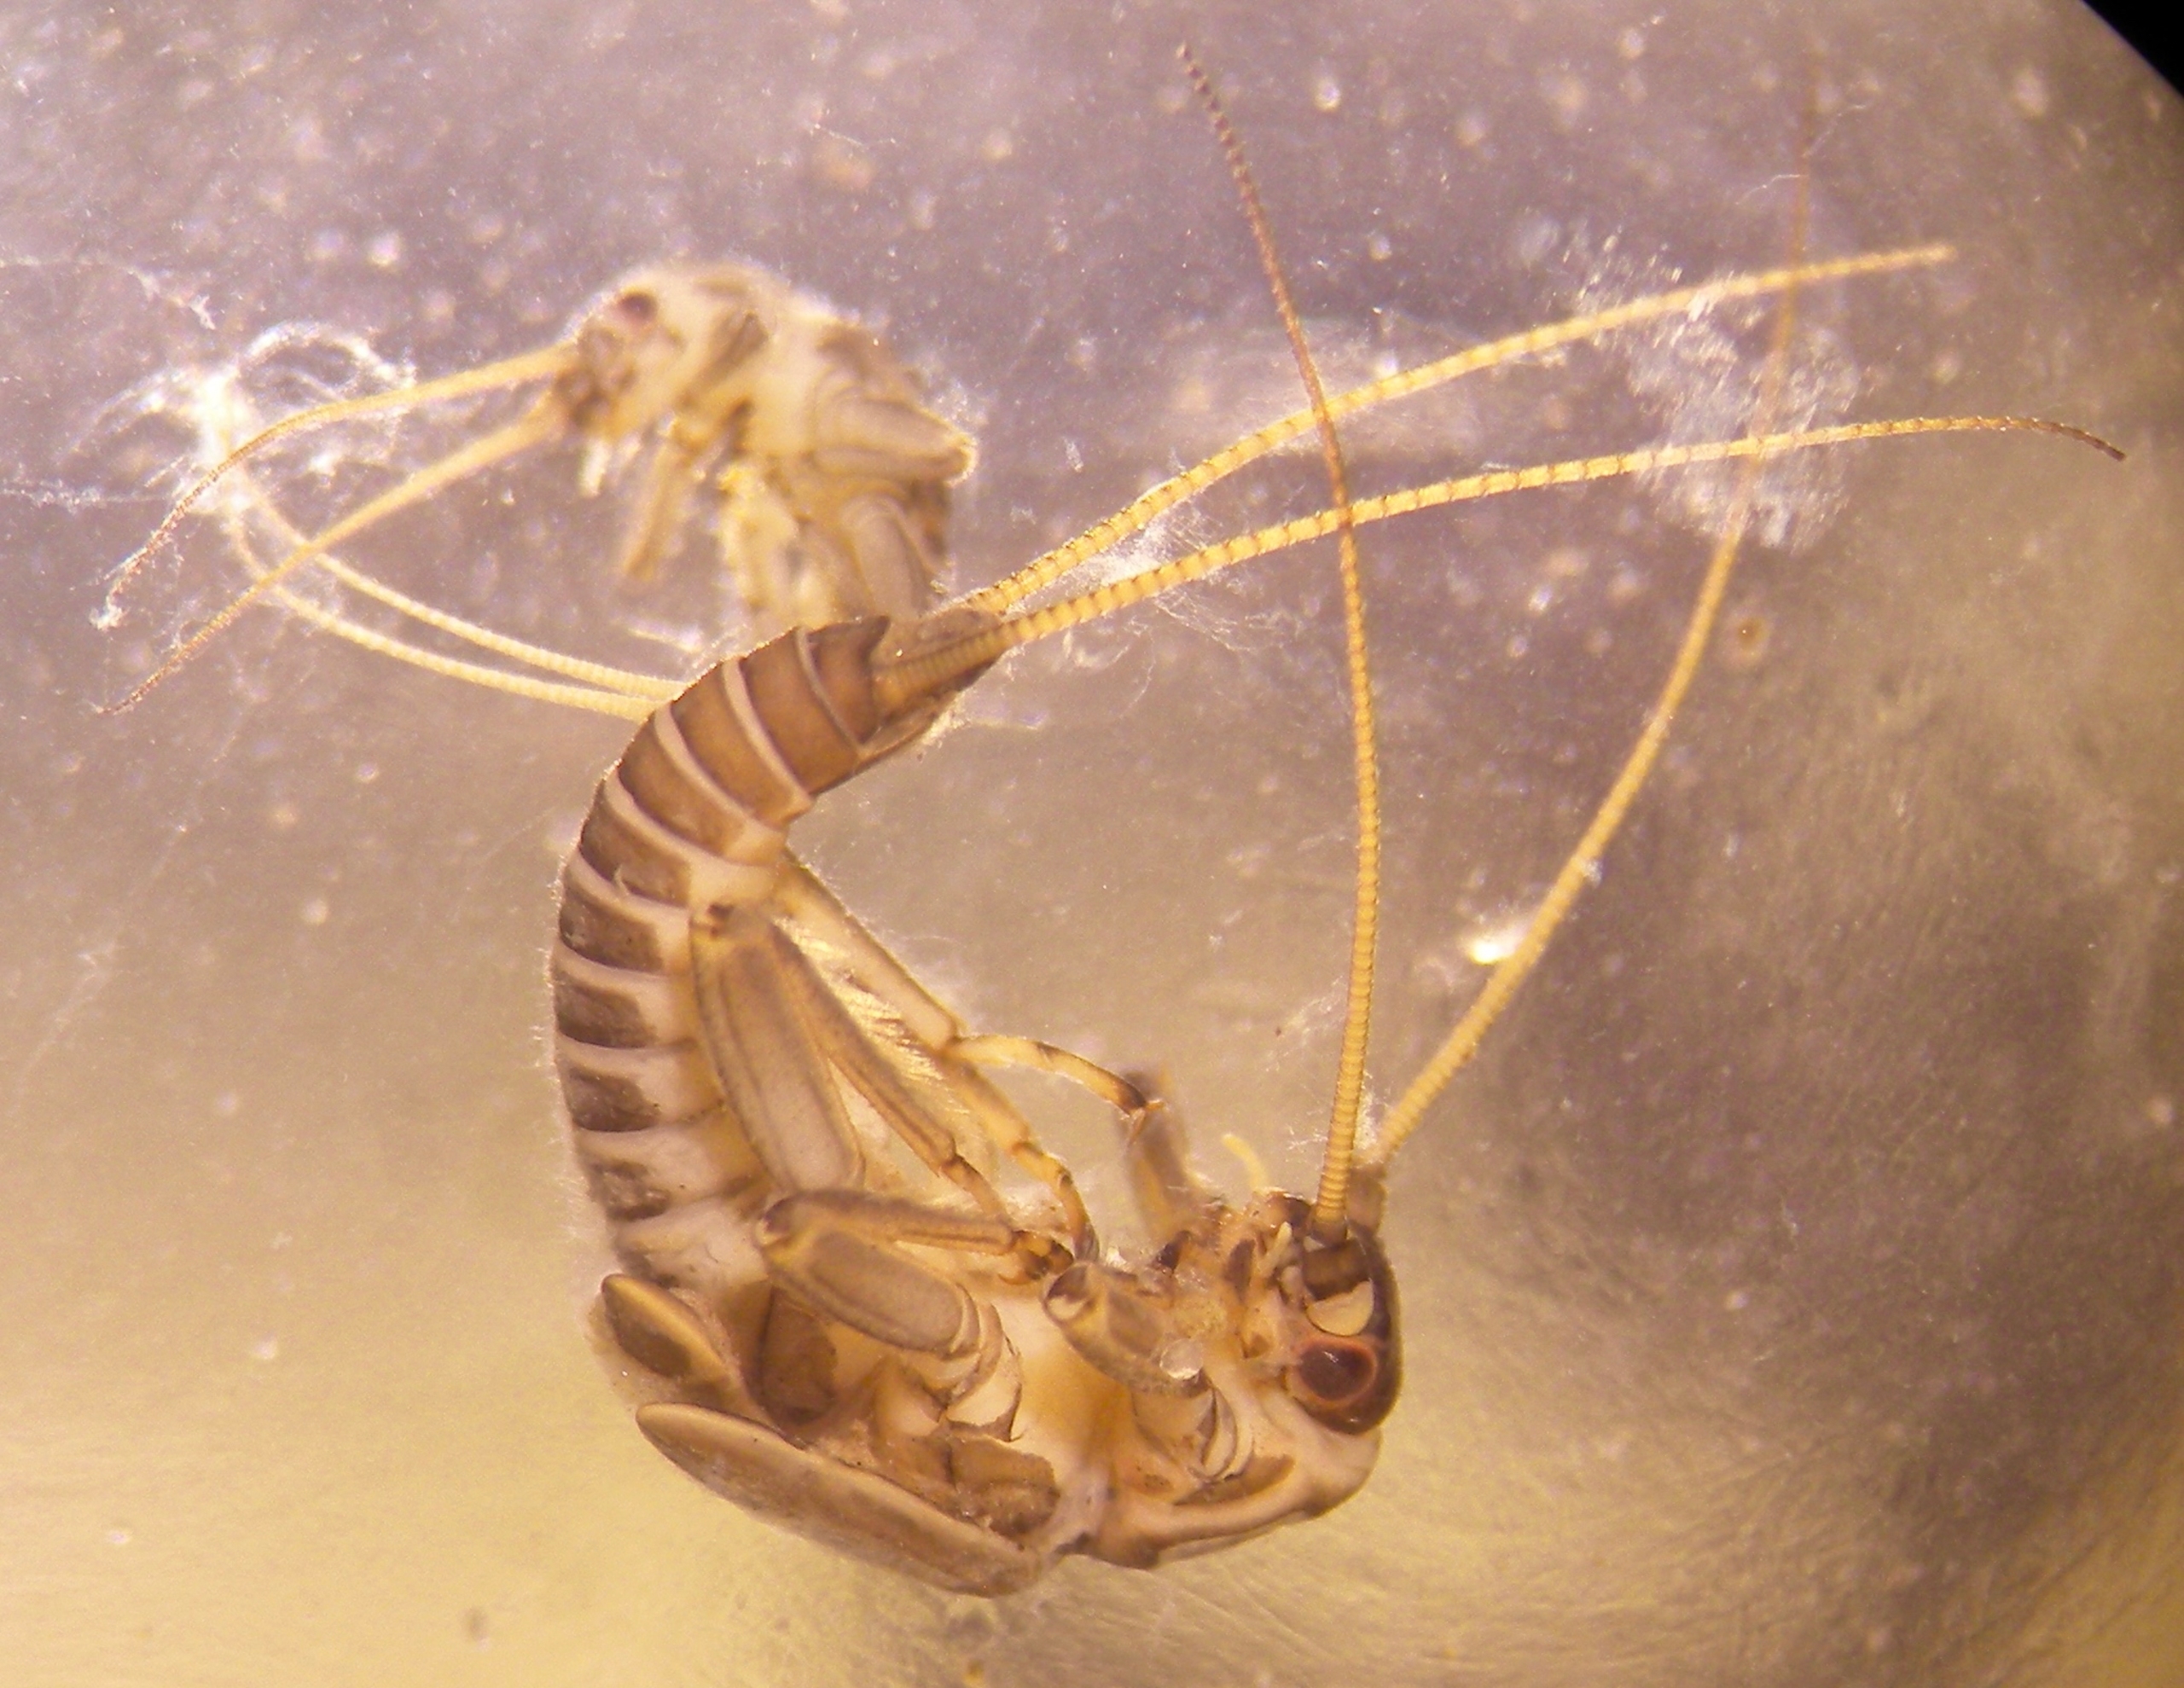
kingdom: Animalia
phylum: Arthropoda
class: Insecta
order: Plecoptera
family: Taeniopterygidae
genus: Brachyptera
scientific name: Brachyptera risi
